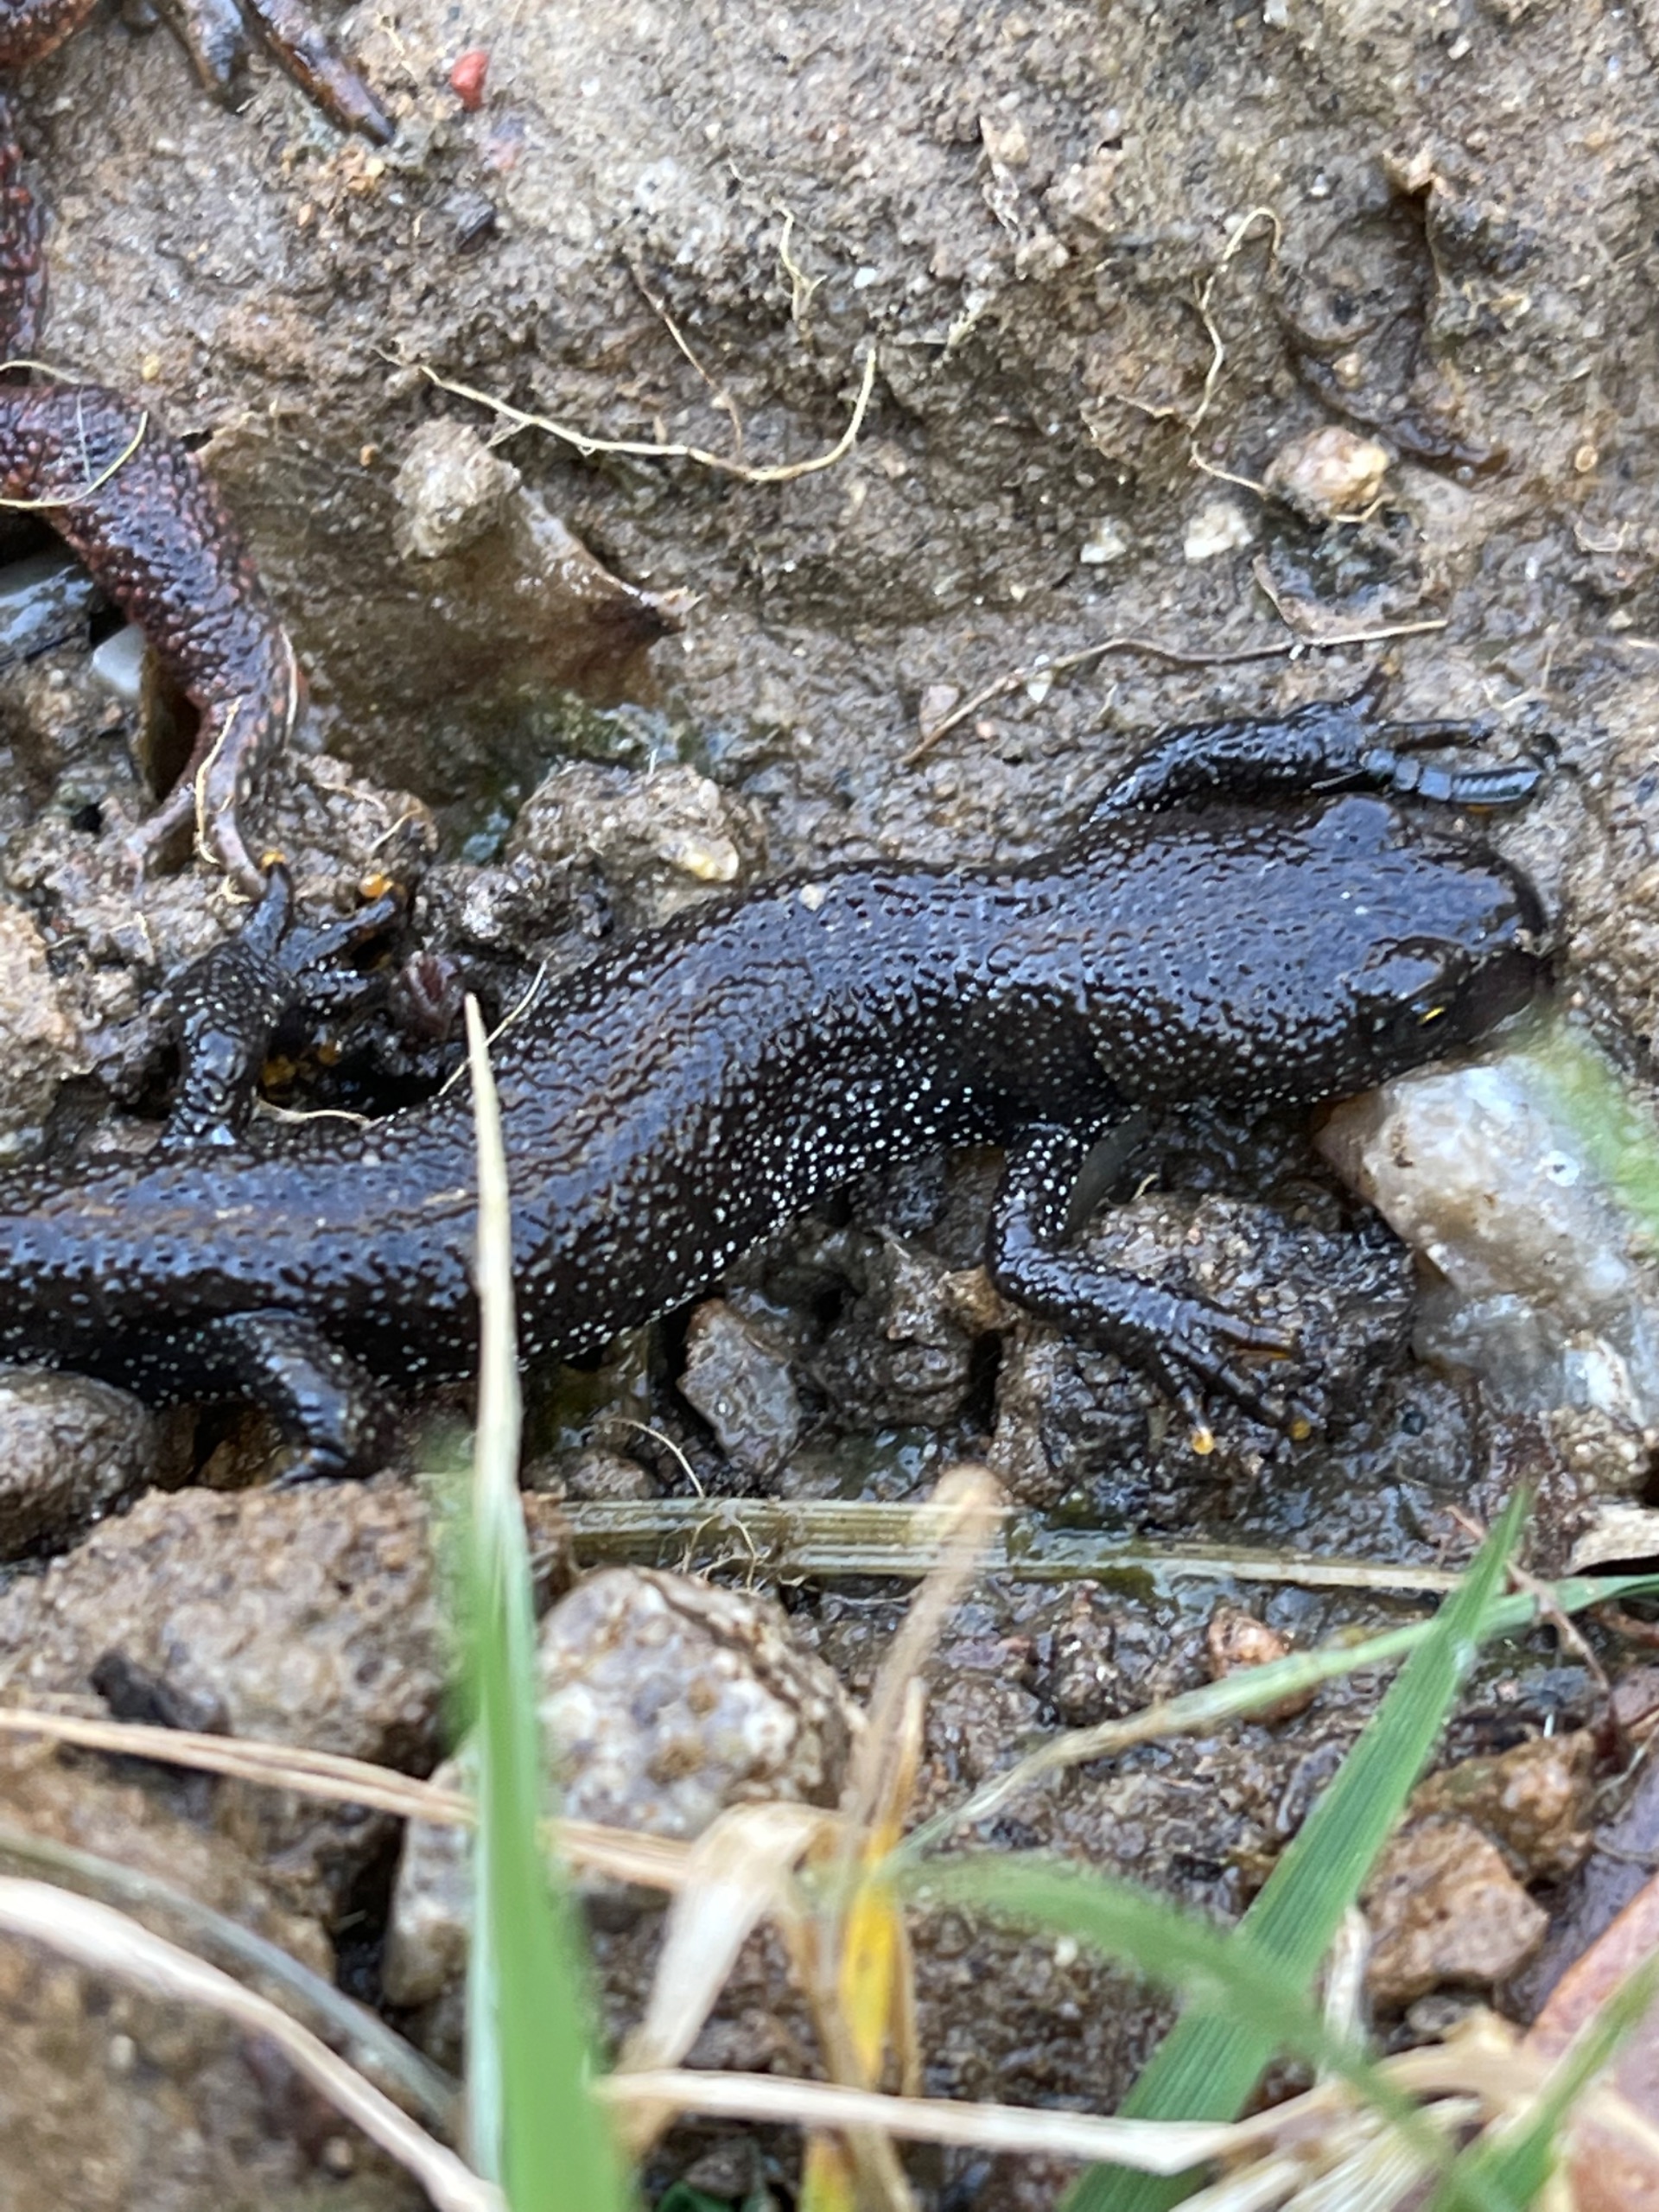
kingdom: Animalia
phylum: Chordata
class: Amphibia
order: Caudata
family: Salamandridae
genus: Triturus
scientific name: Triturus cristatus
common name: Stor vandsalamander
